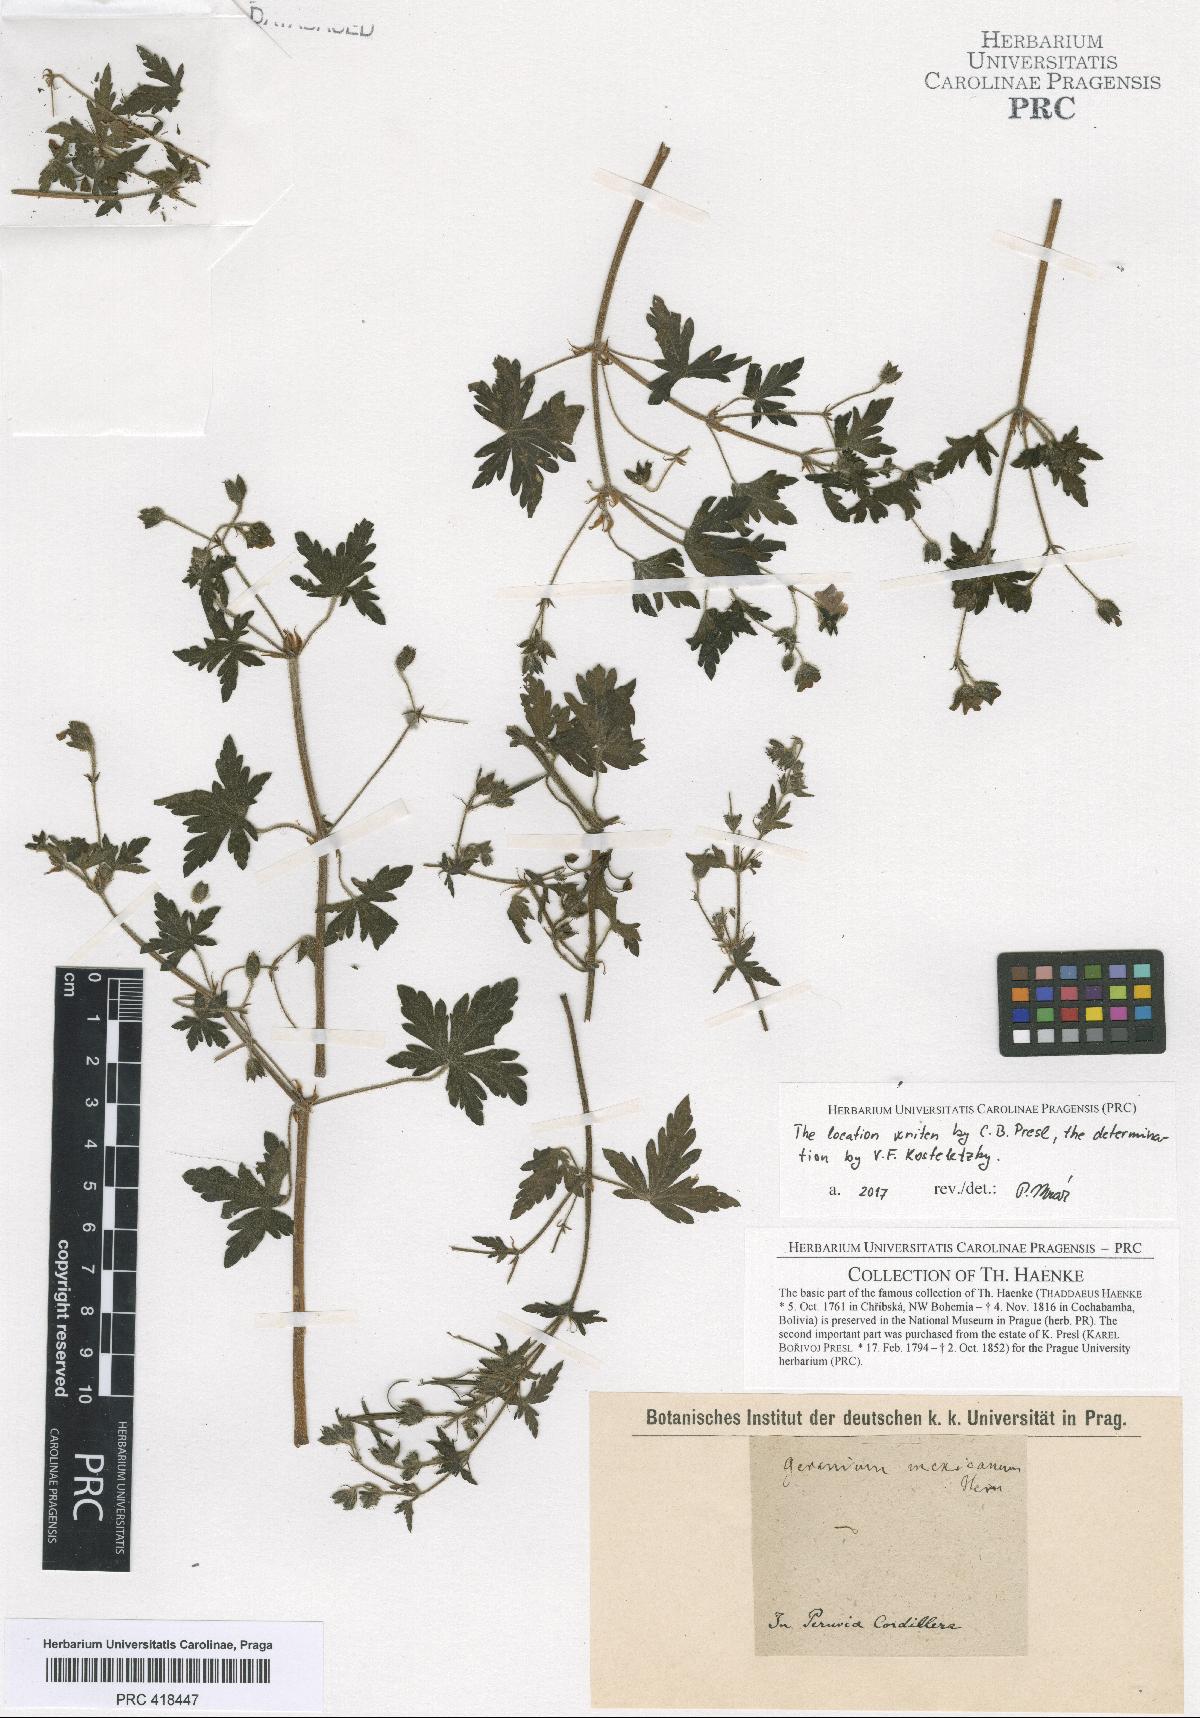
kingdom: Plantae
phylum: Tracheophyta
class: Magnoliopsida
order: Geraniales
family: Geraniaceae
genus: Geranium
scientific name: Geranium fallax
